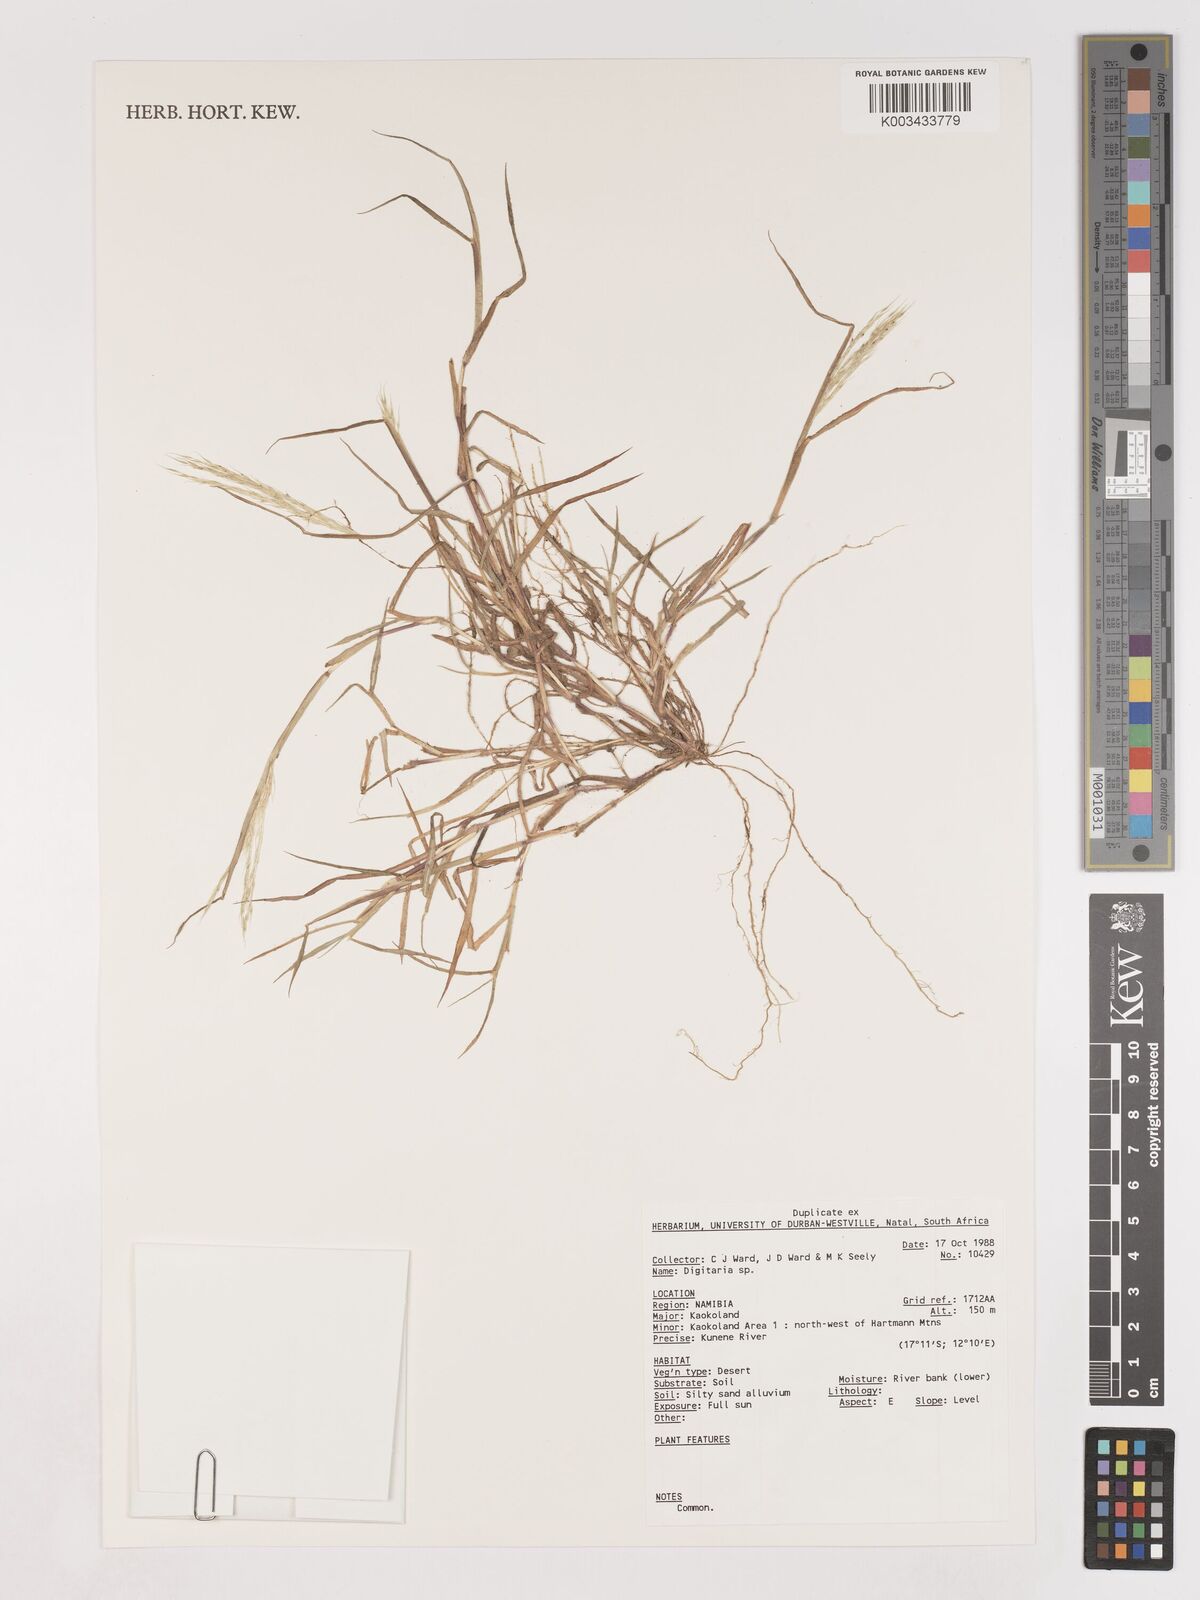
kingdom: Plantae
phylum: Tracheophyta
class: Liliopsida
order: Poales
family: Poaceae
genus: Digitaria
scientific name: Digitaria spec
